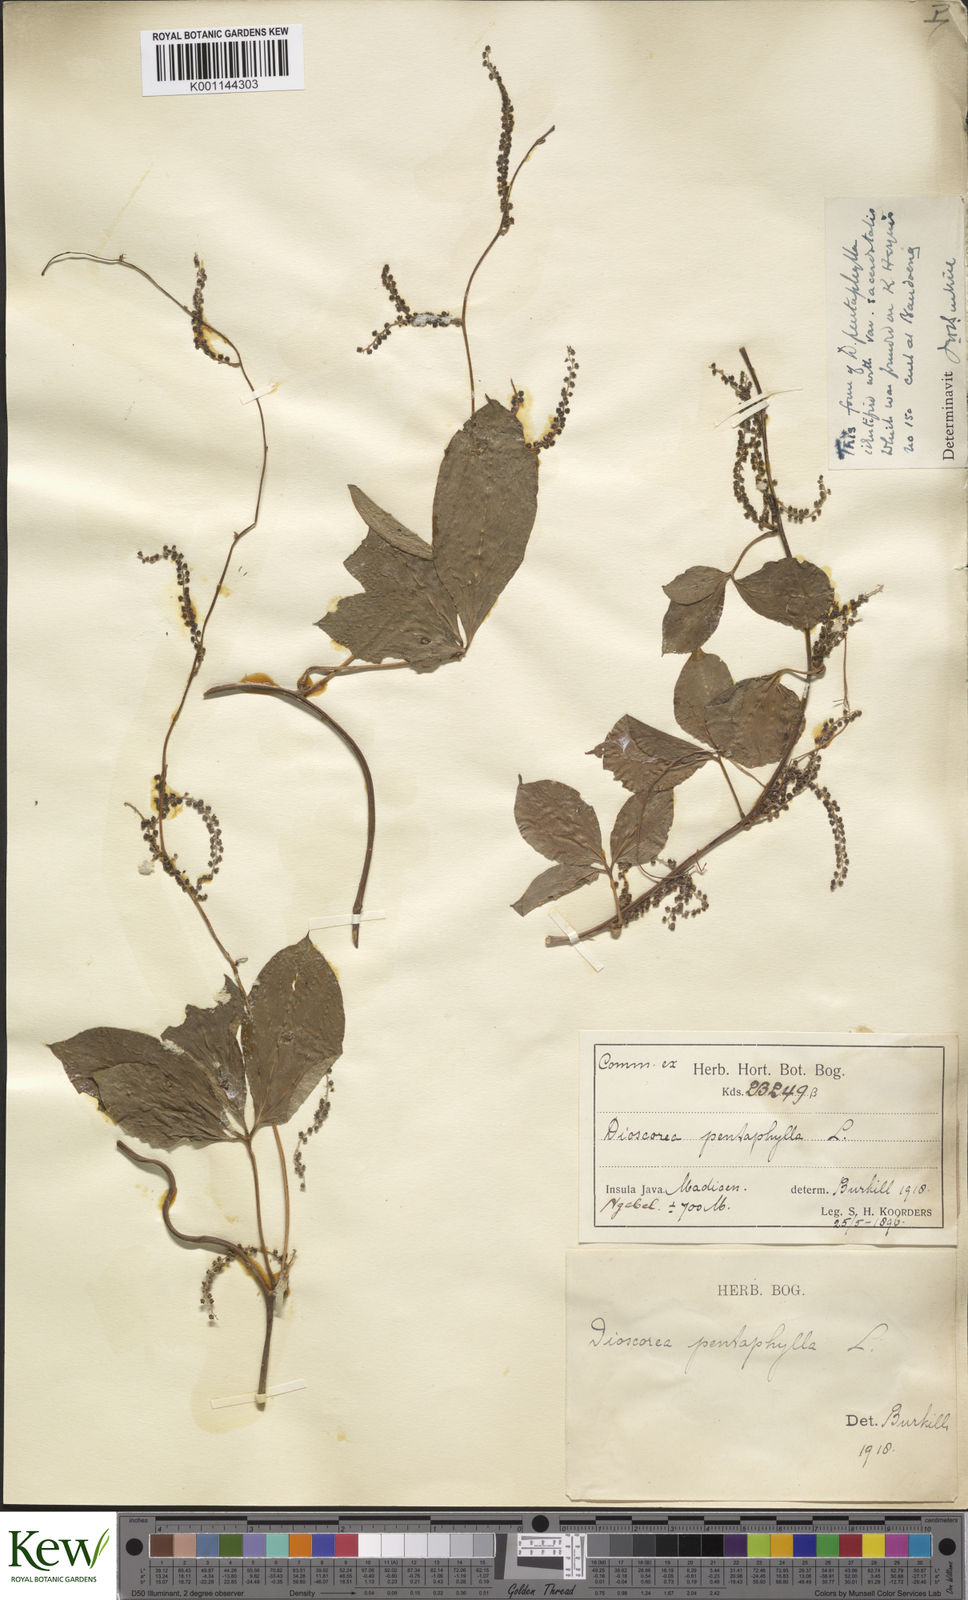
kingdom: Plantae
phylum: Tracheophyta
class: Liliopsida
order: Dioscoreales
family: Dioscoreaceae
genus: Dioscorea
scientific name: Dioscorea pentaphylla
